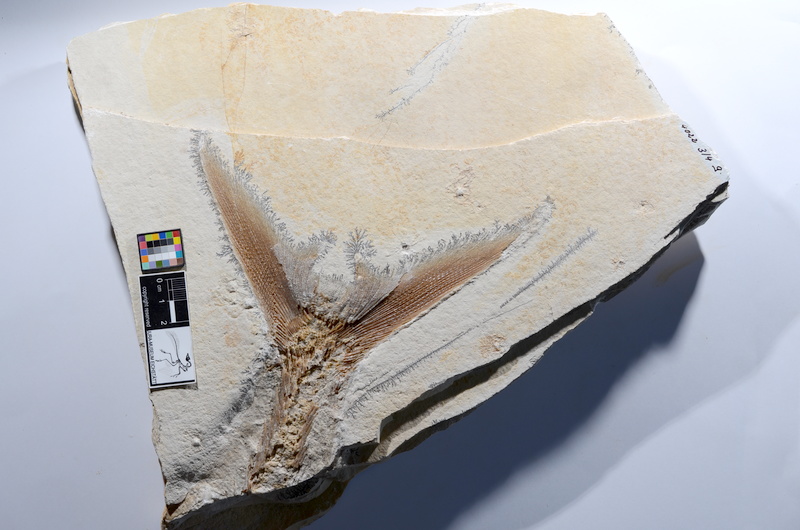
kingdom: Animalia
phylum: Chordata
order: Amiiformes
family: Caturidae
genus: Caturus
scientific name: Caturus
